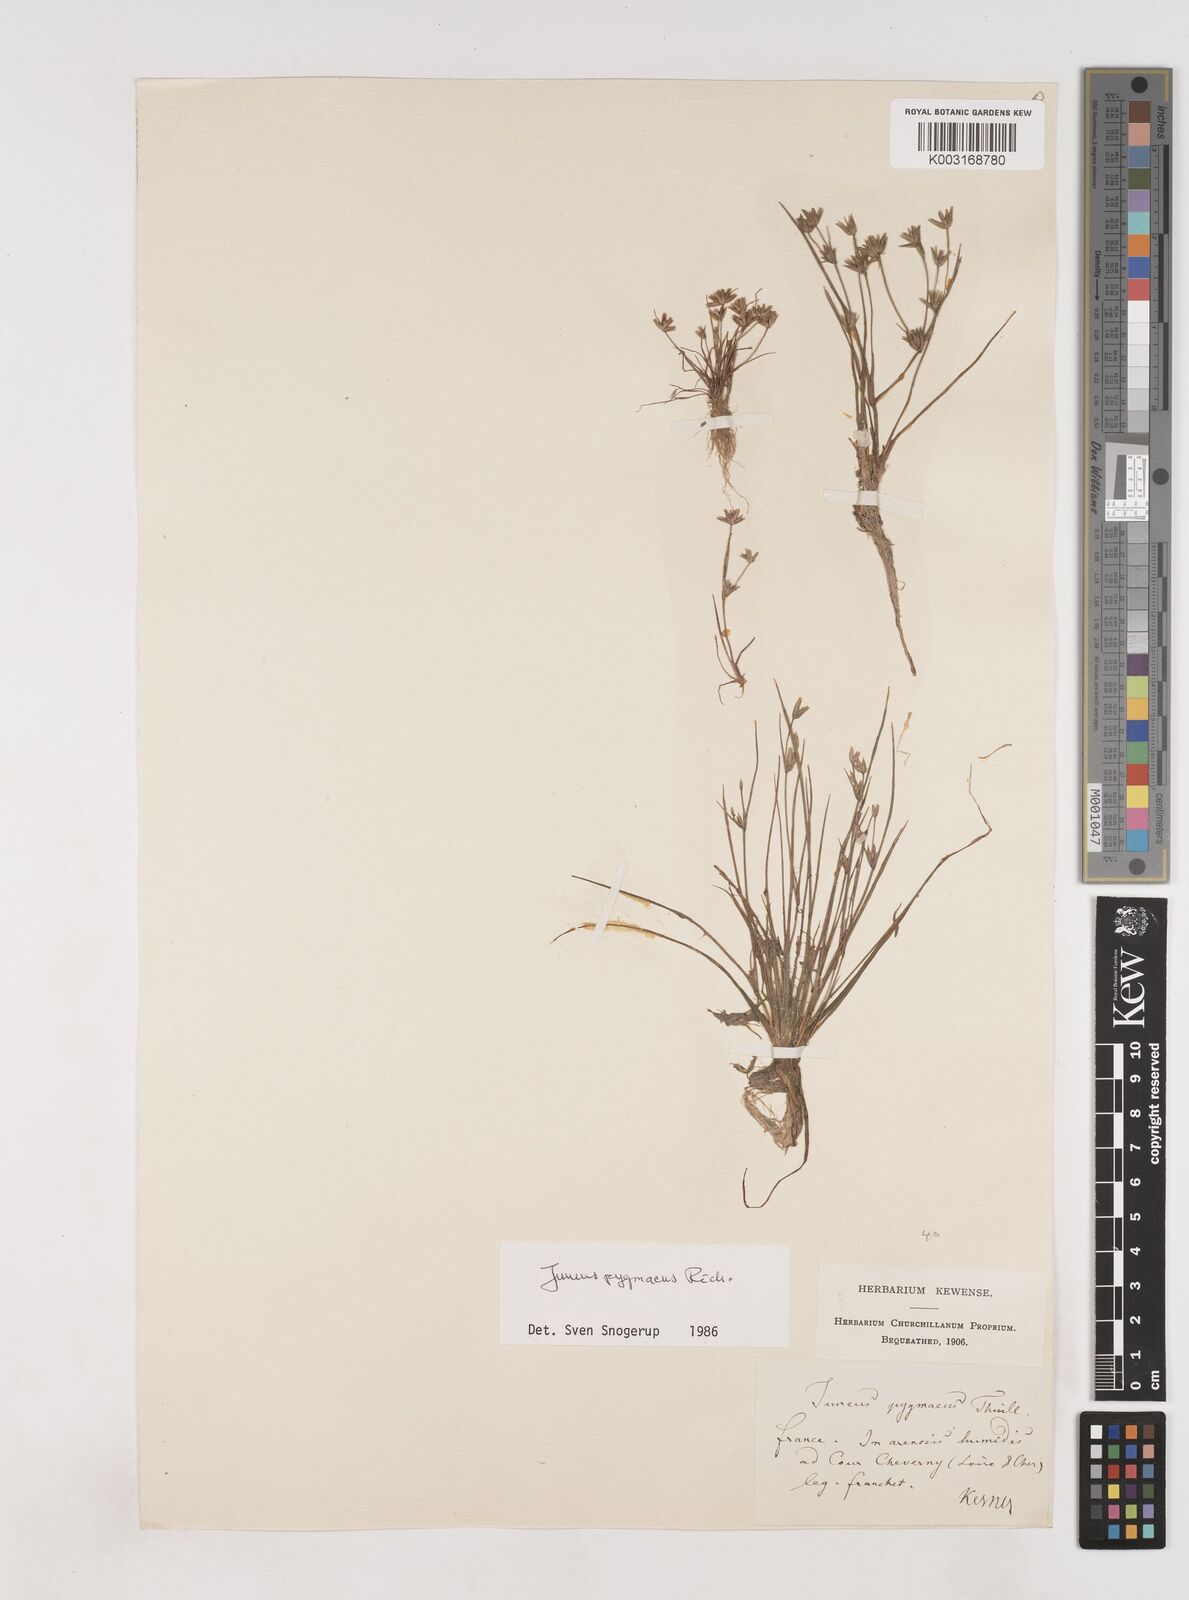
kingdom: Plantae
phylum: Tracheophyta
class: Liliopsida
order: Poales
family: Juncaceae
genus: Juncus
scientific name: Juncus pygmaeus
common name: Pigmy rush
